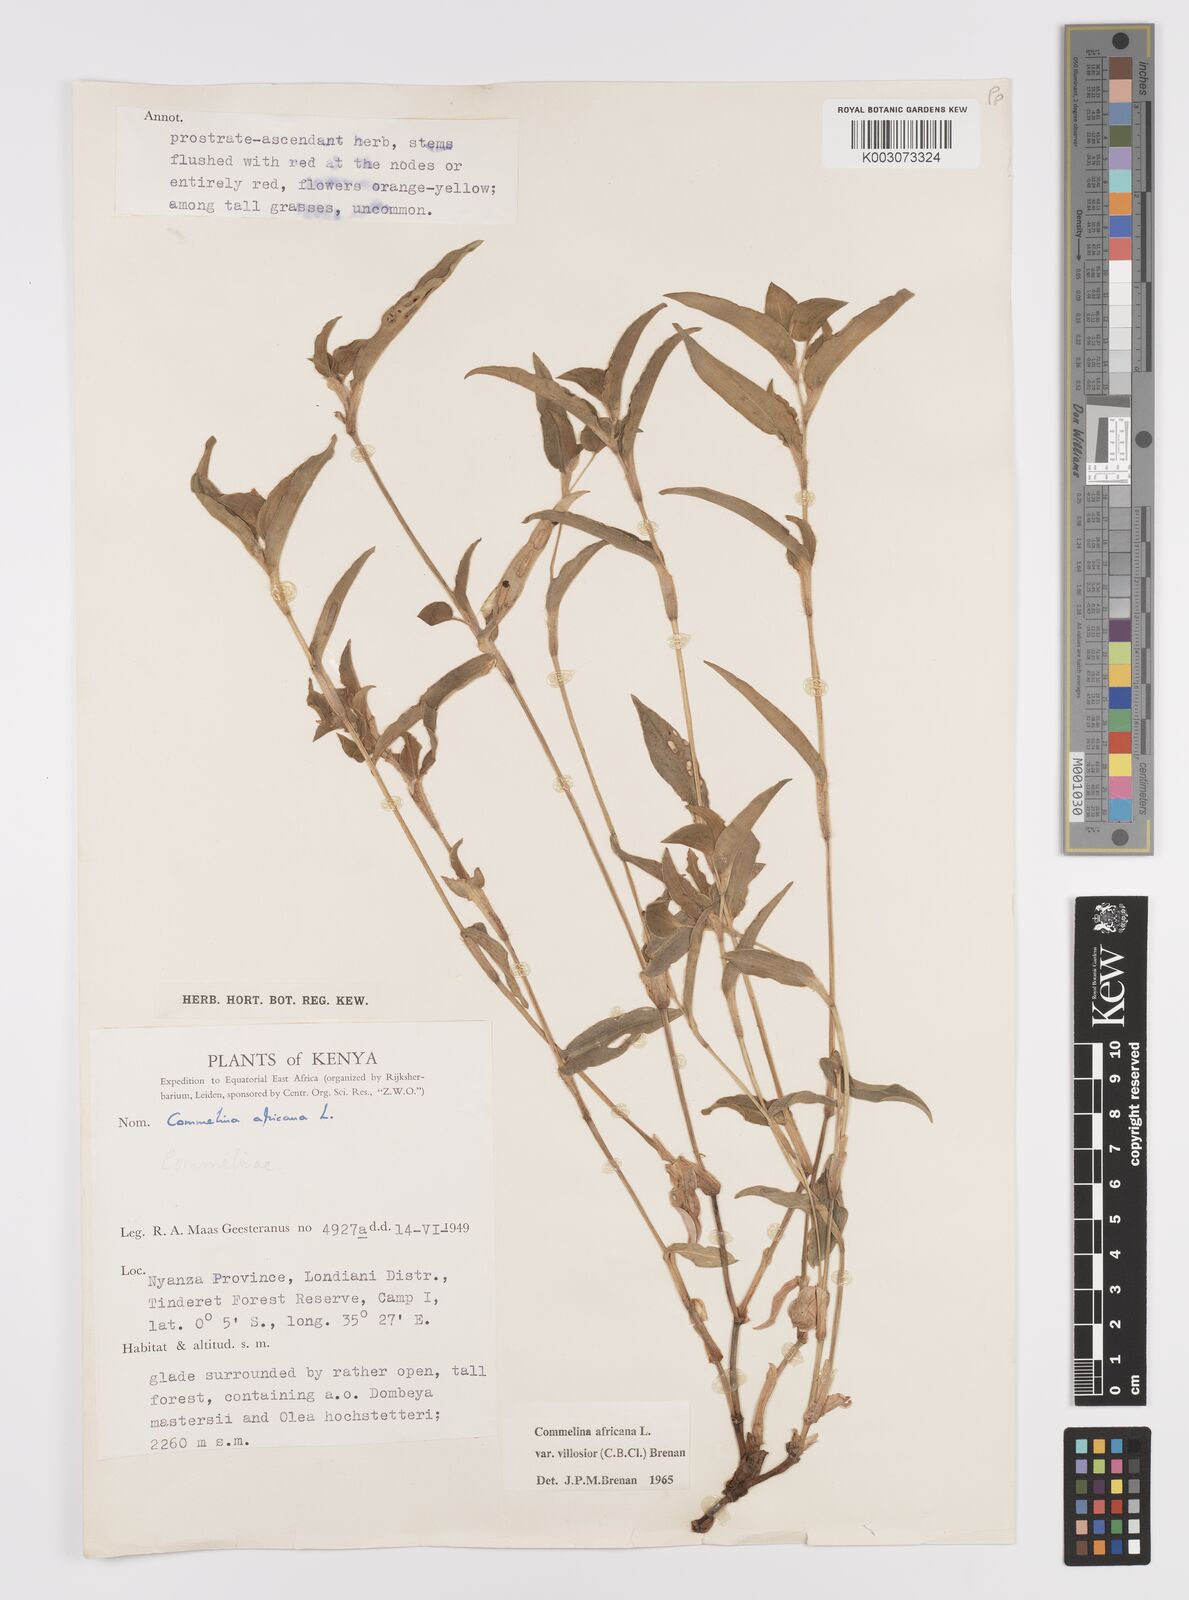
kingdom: Plantae
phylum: Tracheophyta
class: Liliopsida
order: Commelinales
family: Commelinaceae
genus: Commelina
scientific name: Commelina africana
